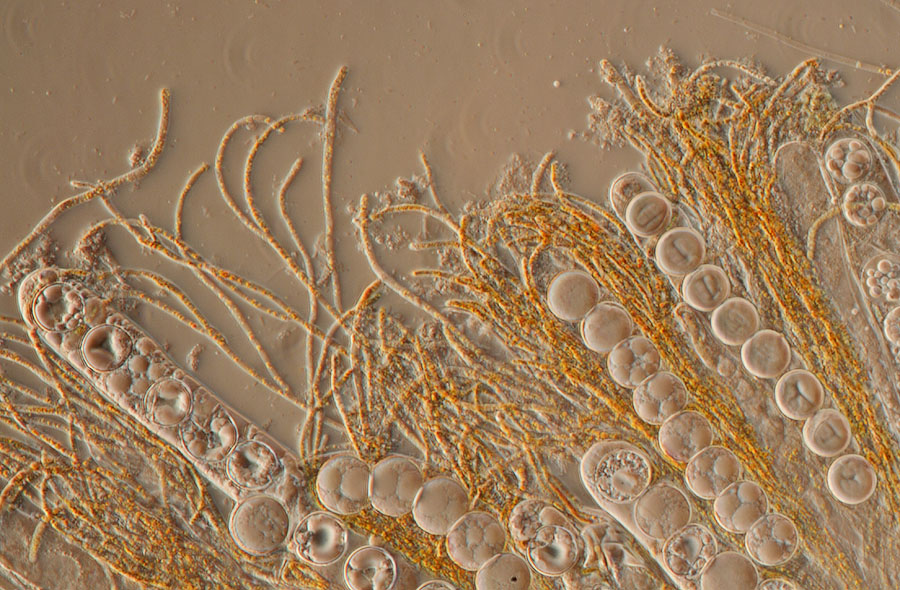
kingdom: Fungi
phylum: Ascomycota
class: Pezizomycetes
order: Pezizales
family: Pulvinulaceae
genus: Pulvinula
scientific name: Pulvinula convexella
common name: stor pudebæger
